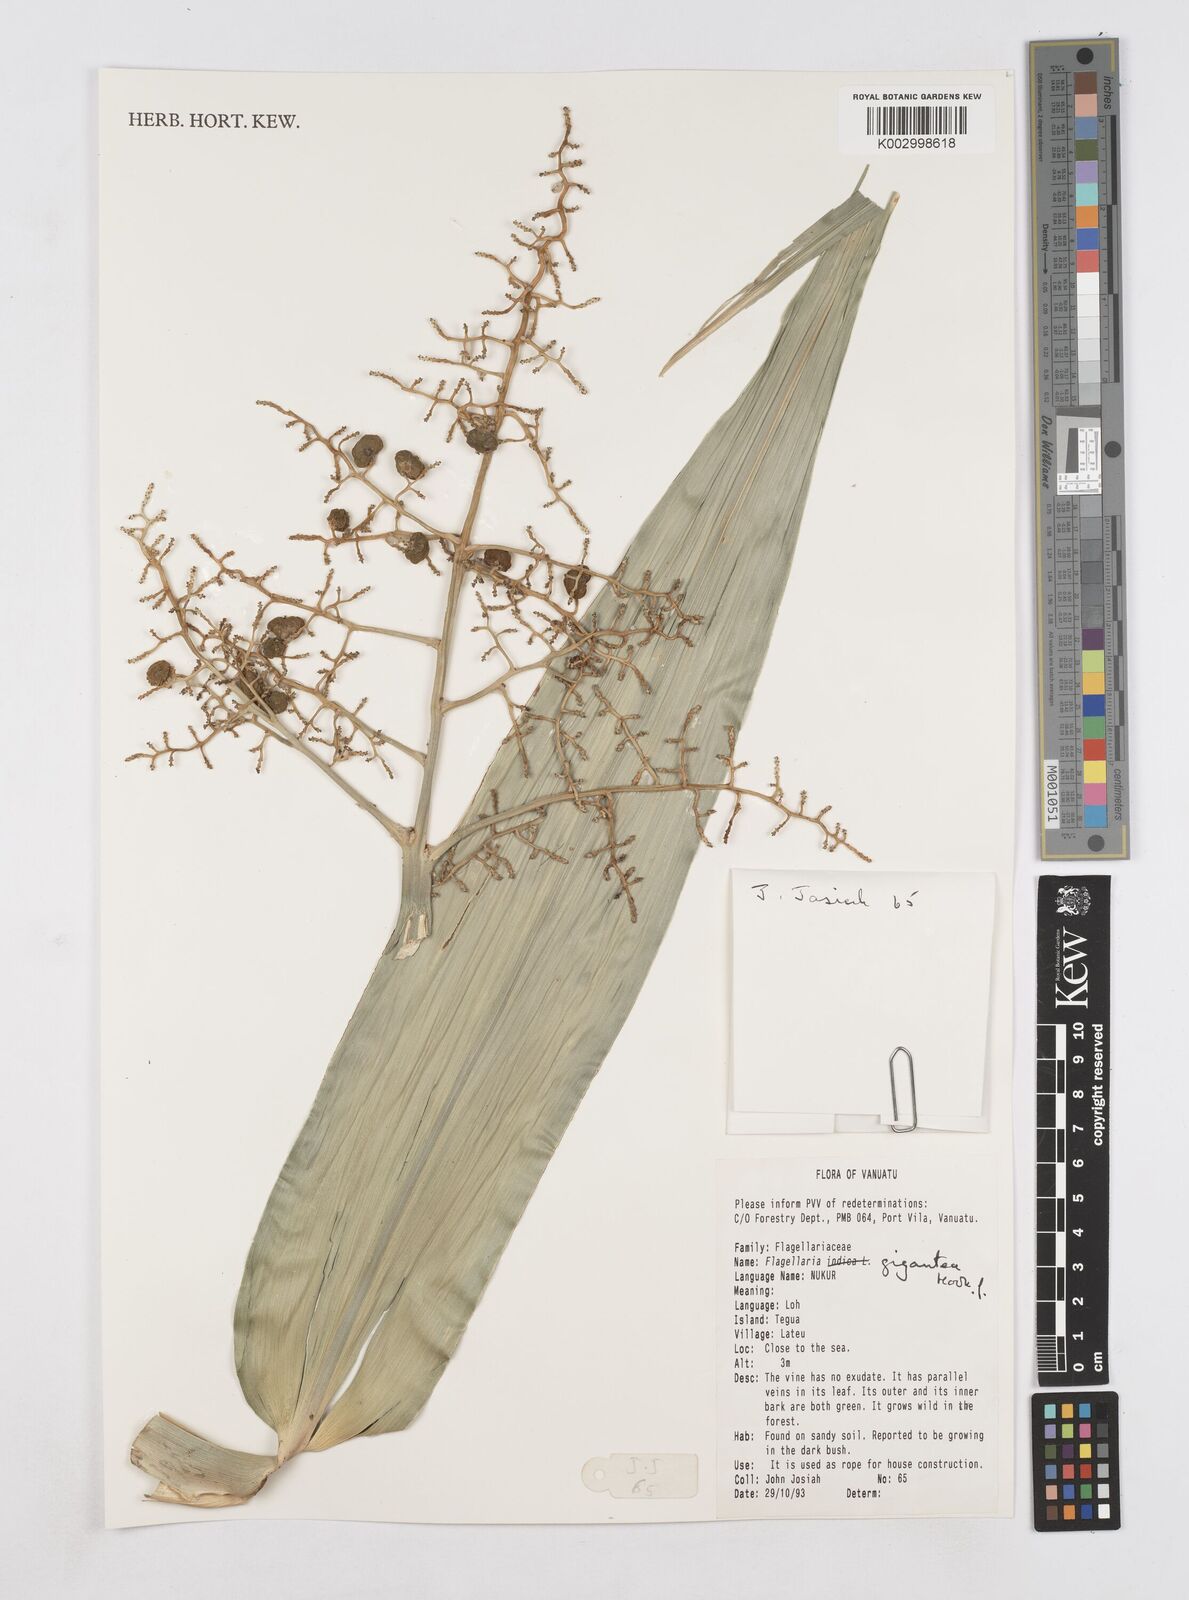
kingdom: Plantae
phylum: Tracheophyta
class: Liliopsida
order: Poales
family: Flagellariaceae
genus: Flagellaria
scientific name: Flagellaria gigantea
